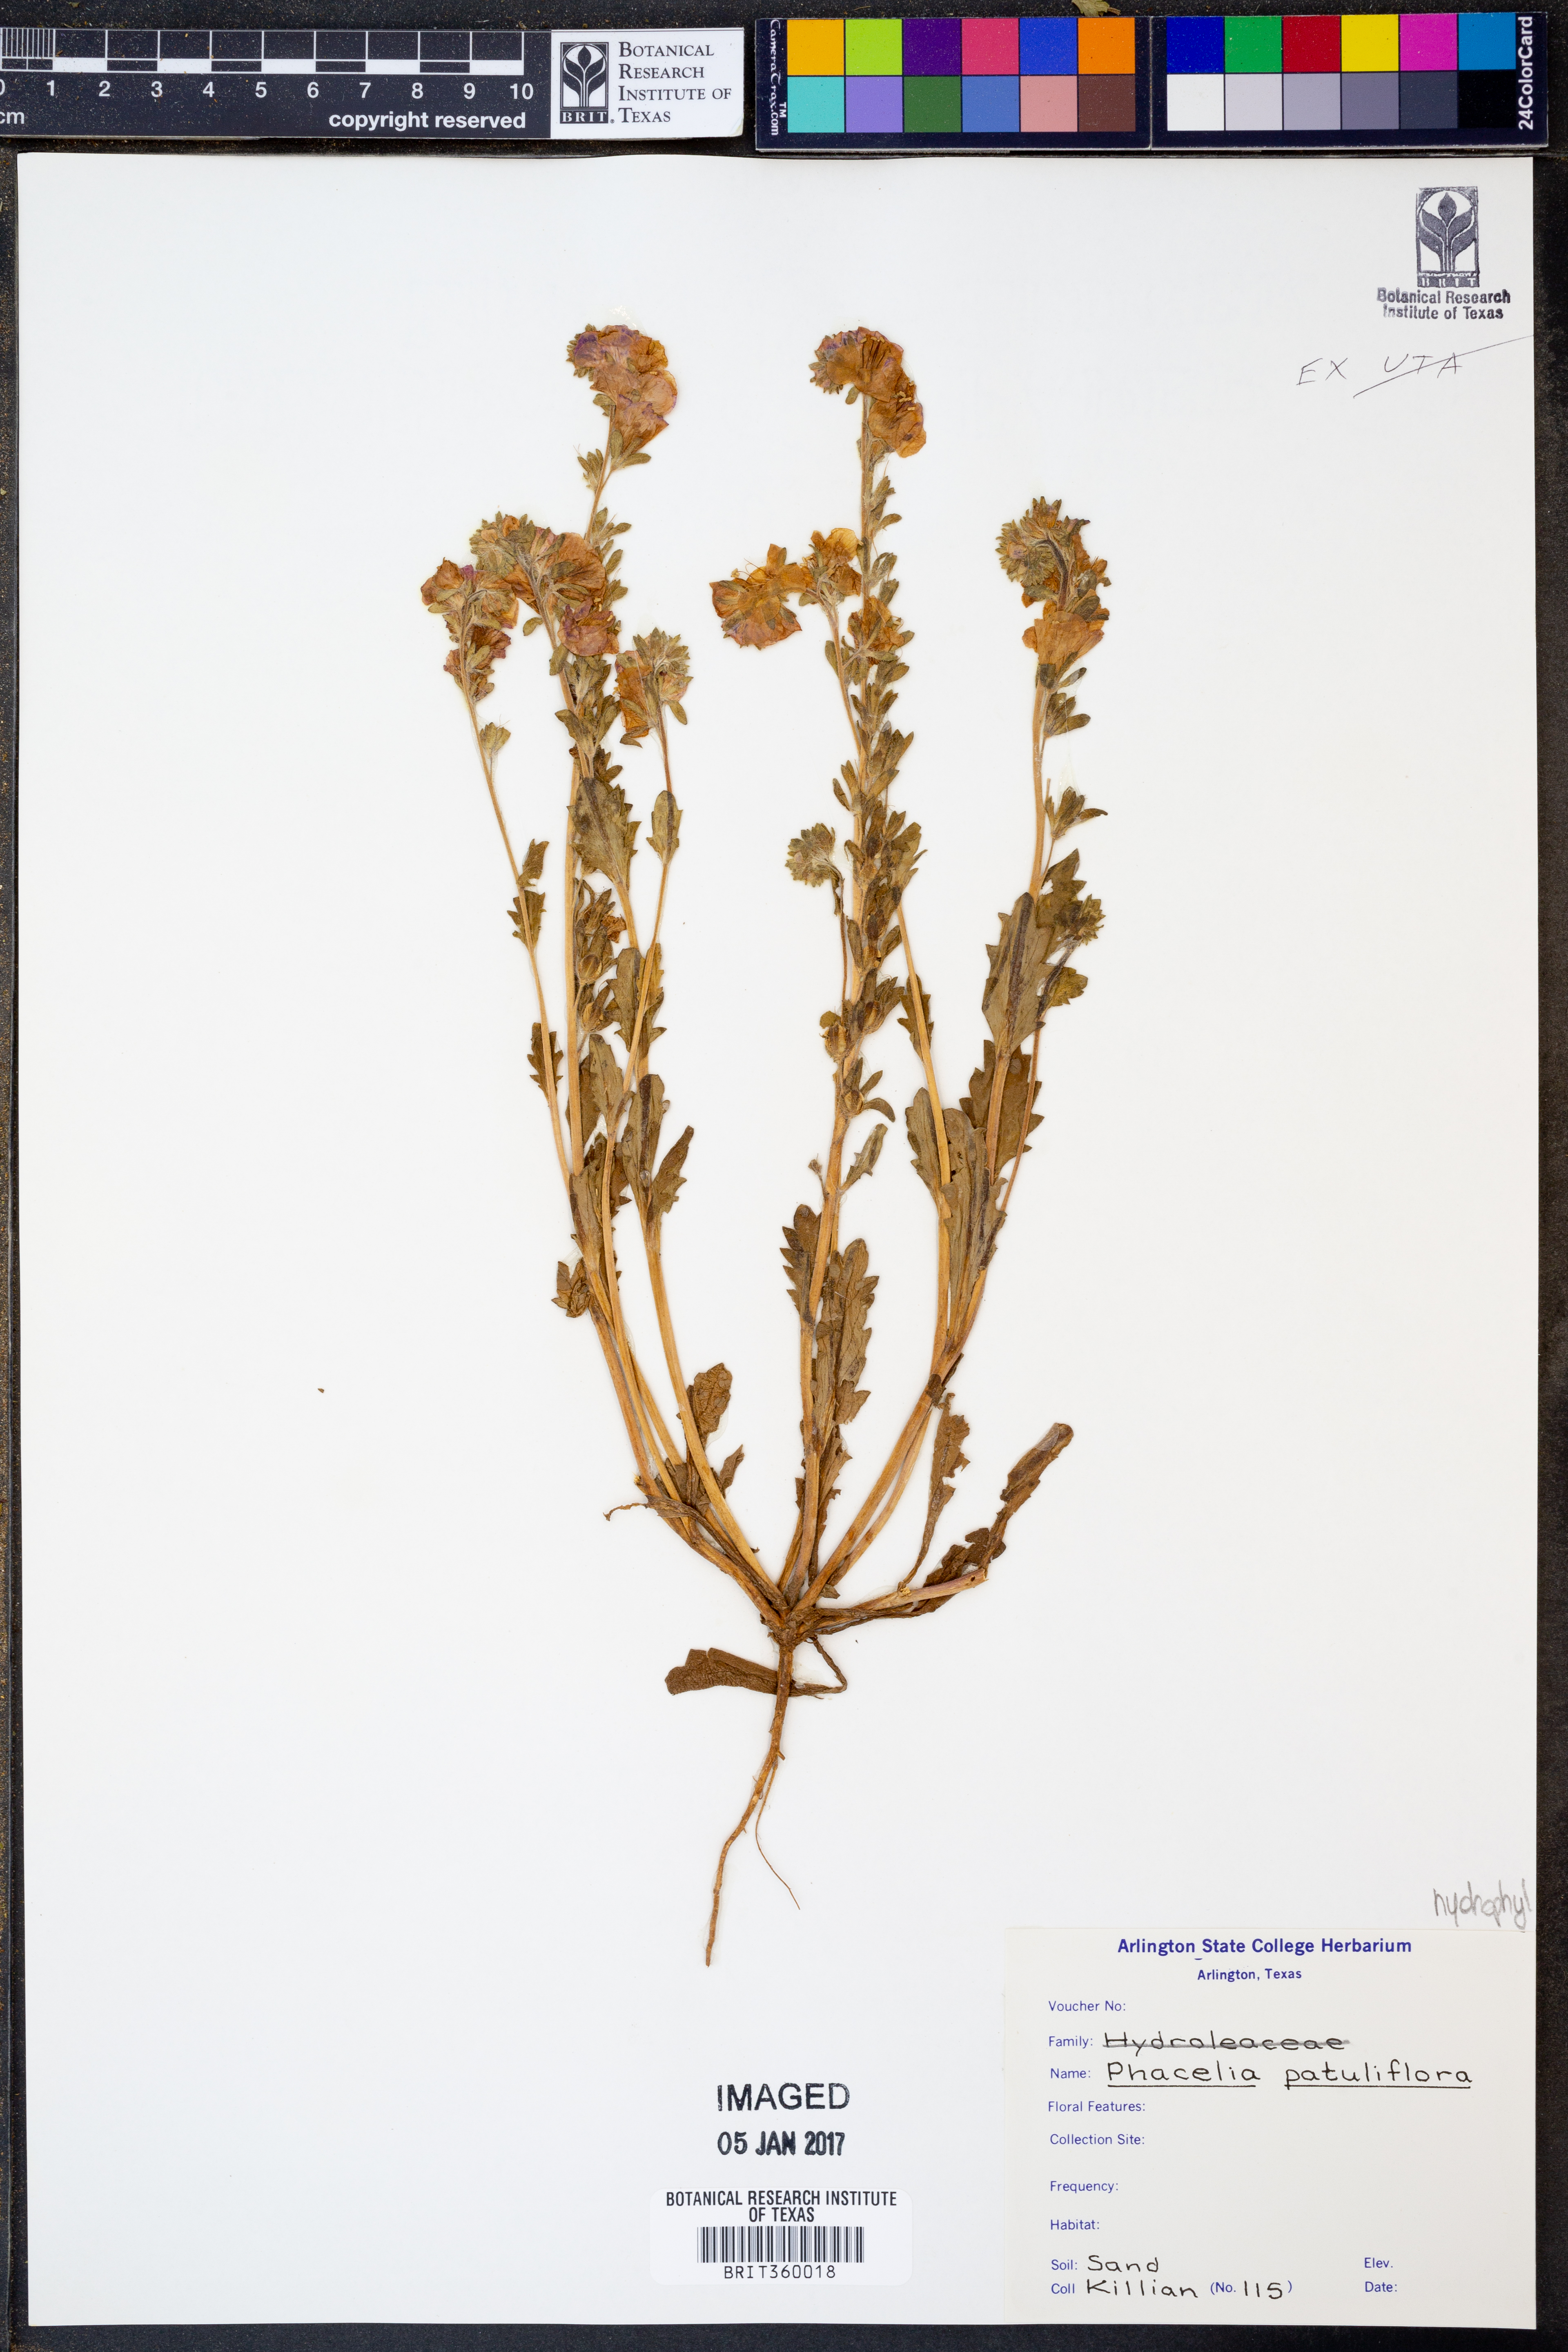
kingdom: Plantae
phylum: Tracheophyta
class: Magnoliopsida
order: Boraginales
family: Hydrophyllaceae
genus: Phacelia
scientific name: Phacelia patuliflora
